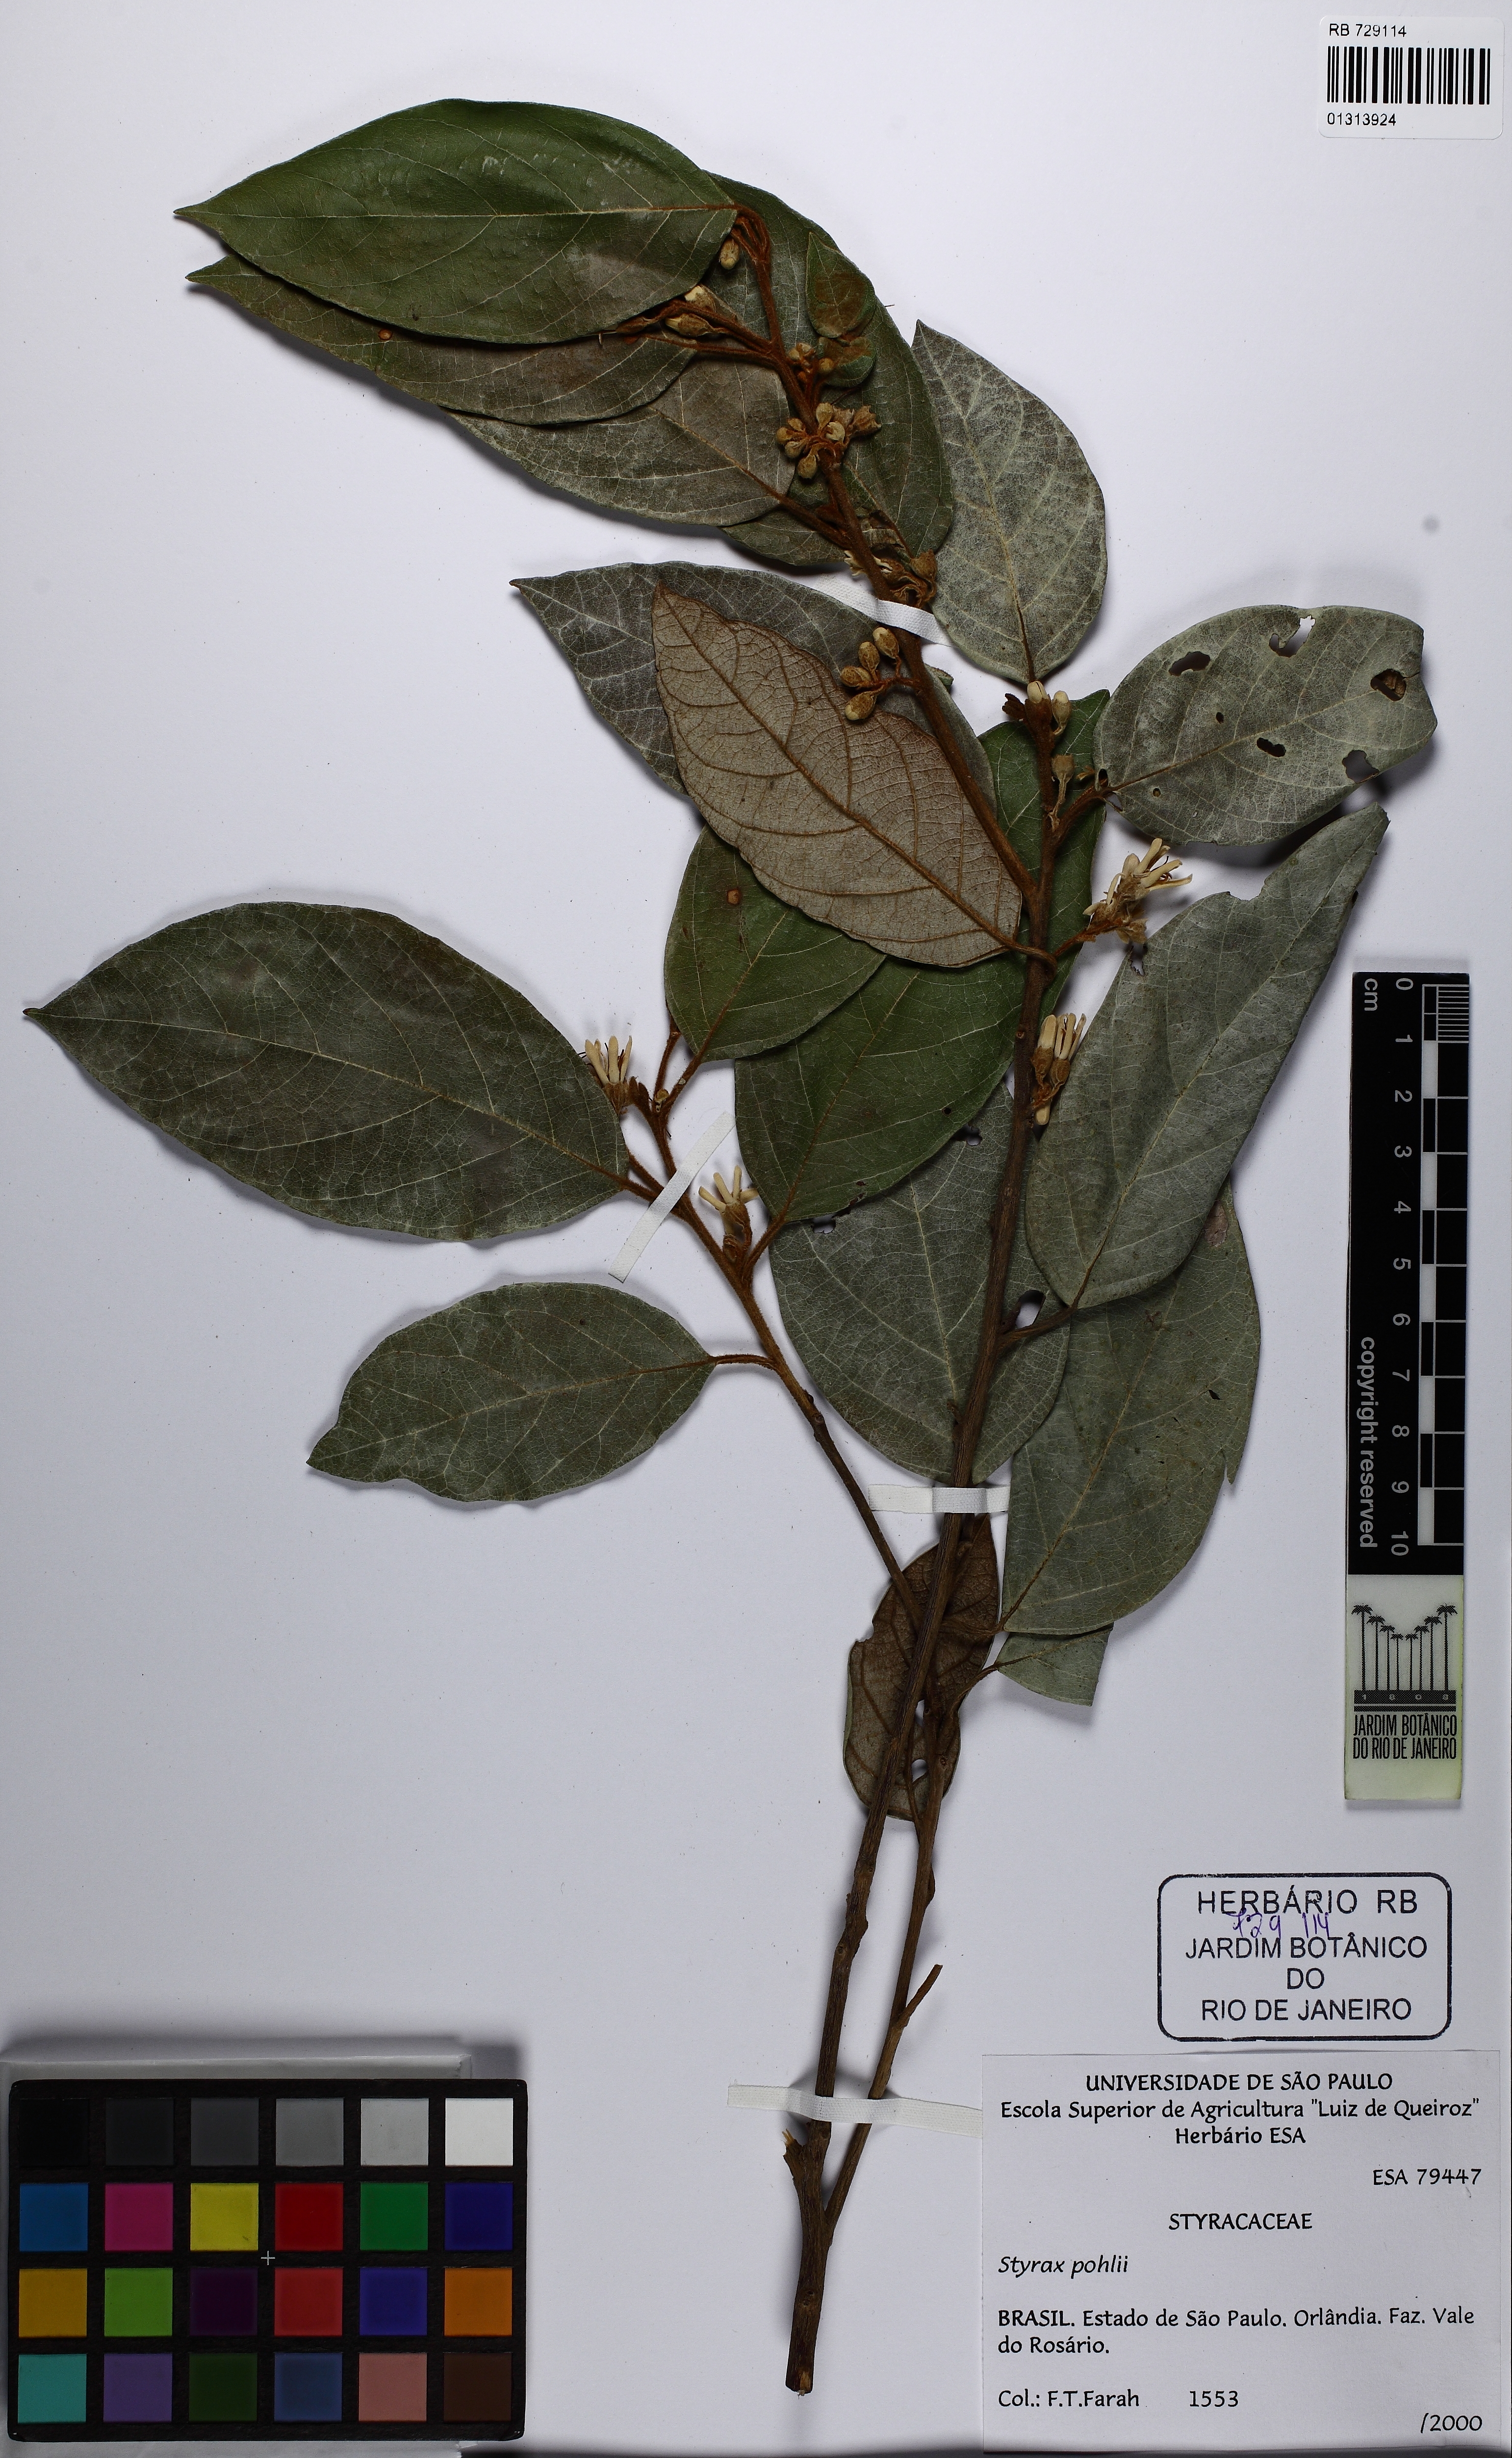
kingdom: Plantae
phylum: Tracheophyta
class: Magnoliopsida
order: Ericales
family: Styracaceae
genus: Styrax
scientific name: Styrax pohlii
